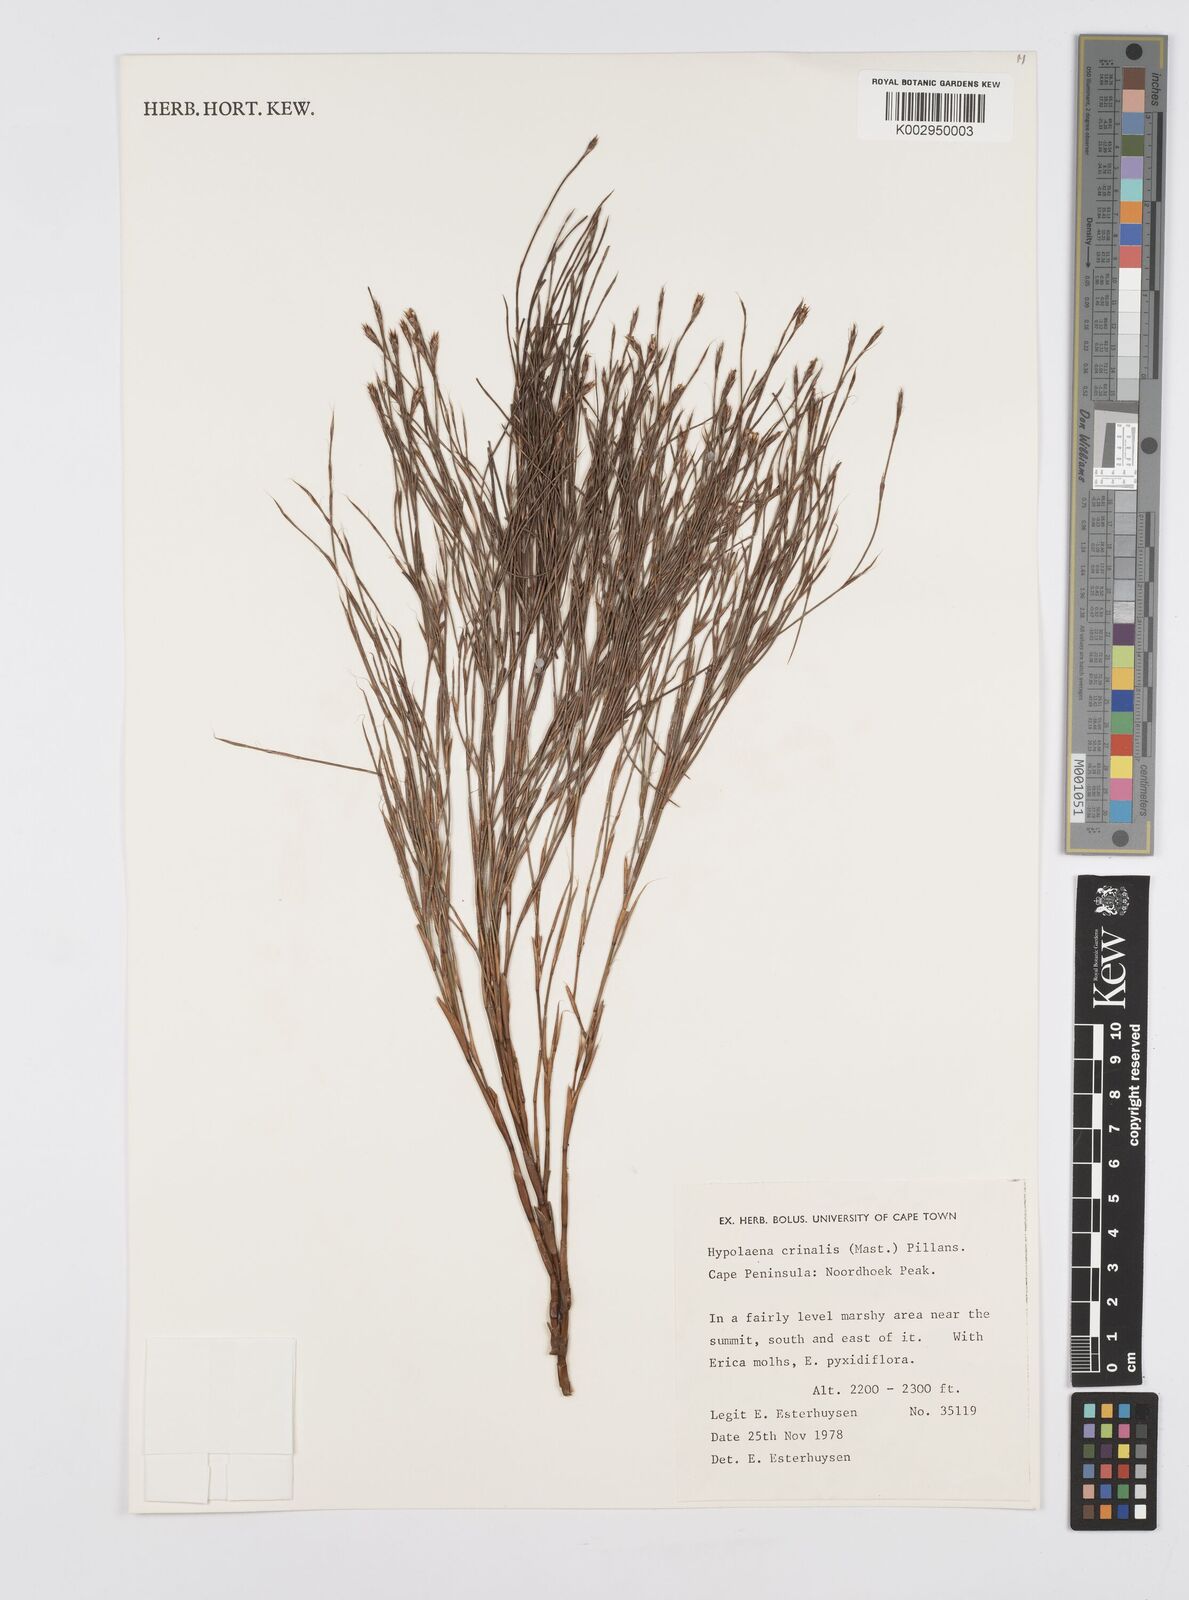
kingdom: Plantae
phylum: Tracheophyta
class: Liliopsida
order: Poales
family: Restionaceae
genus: Anthochortus
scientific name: Anthochortus crinalis
